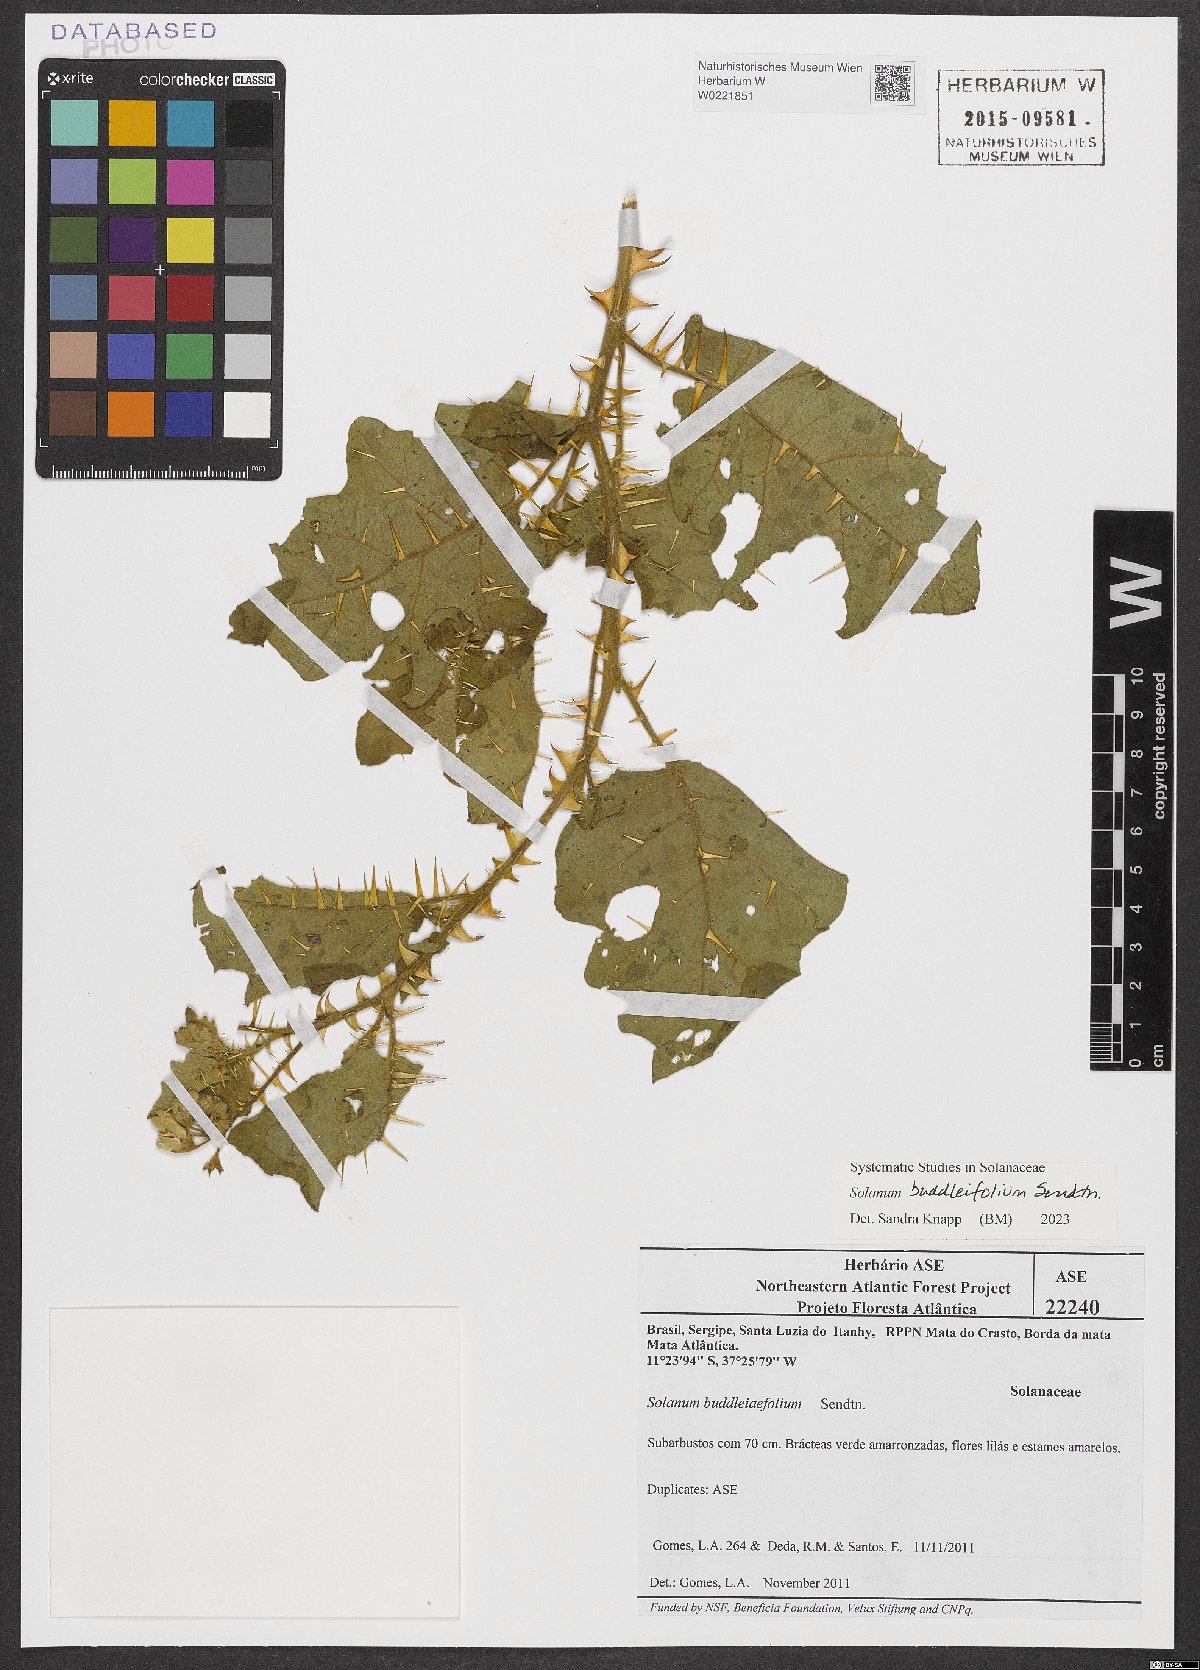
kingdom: Plantae
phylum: Tracheophyta
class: Magnoliopsida
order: Solanales
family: Solanaceae
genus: Solanum
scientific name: Solanum buddlejifolium
